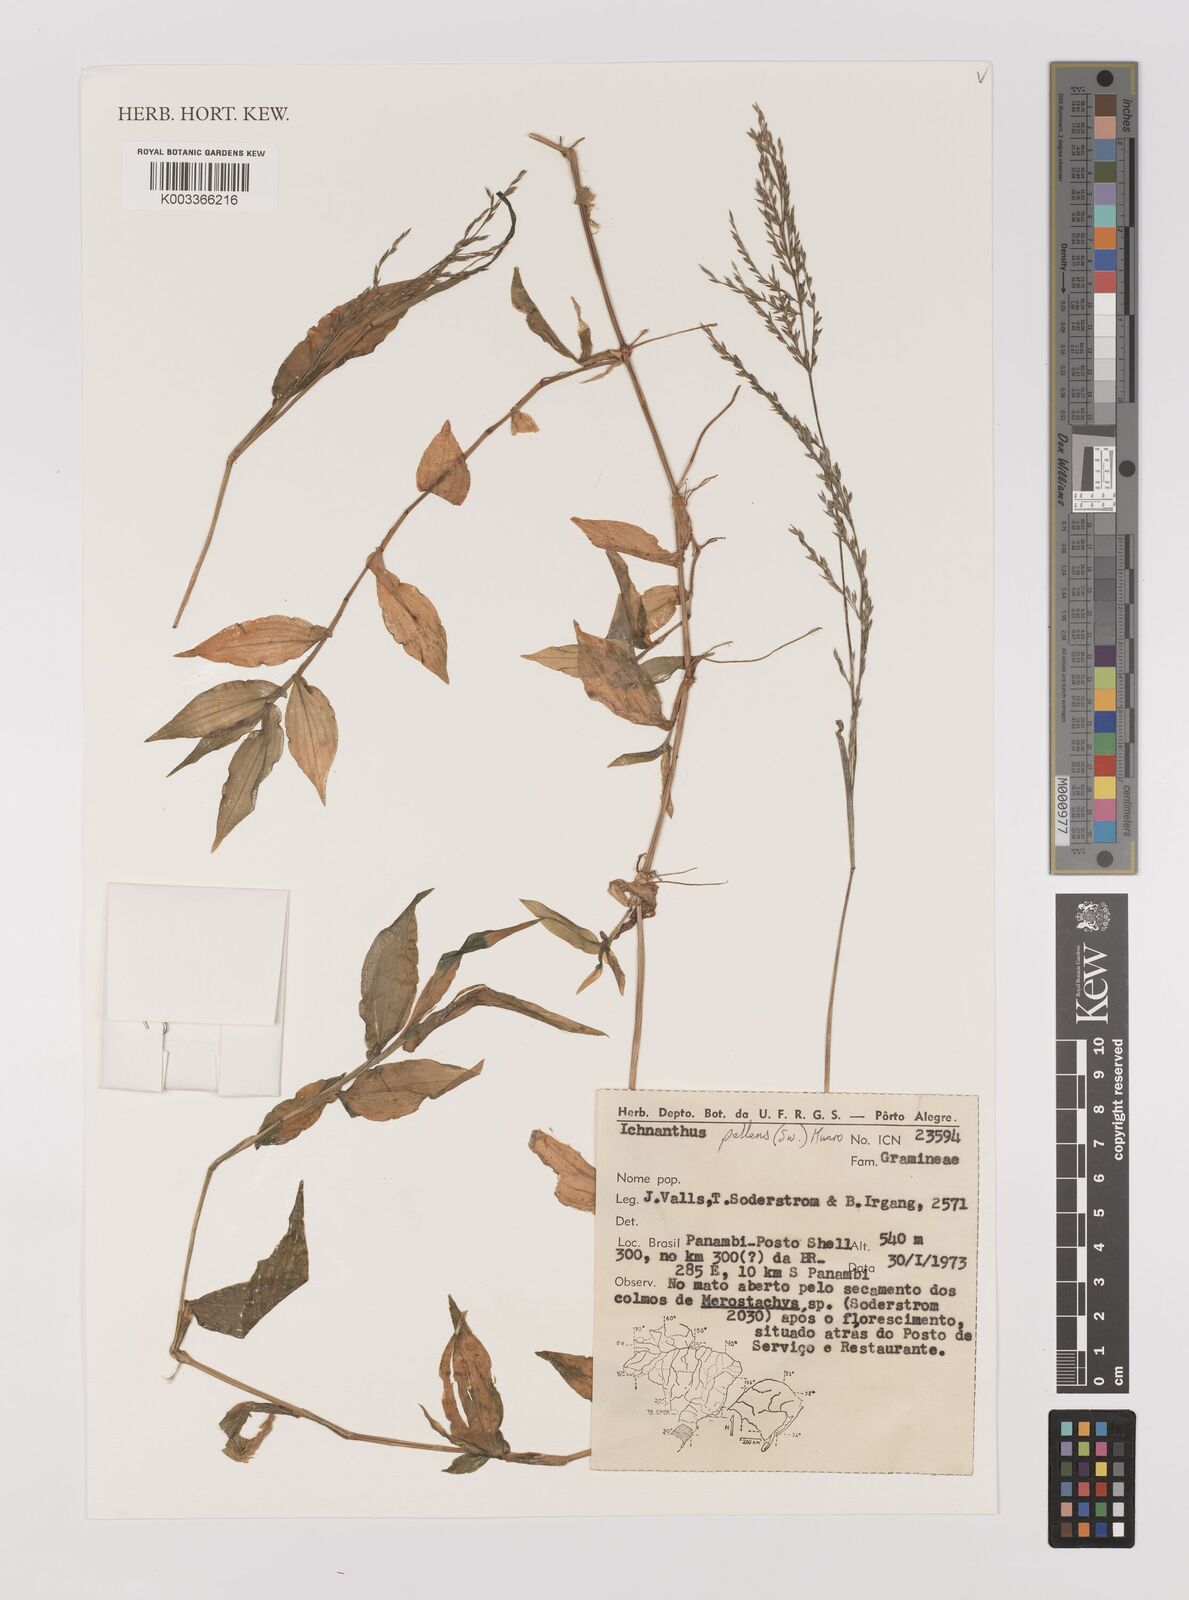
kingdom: Plantae
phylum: Tracheophyta
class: Liliopsida
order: Poales
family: Poaceae
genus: Ichnanthus
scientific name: Ichnanthus pallens
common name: Water grass
